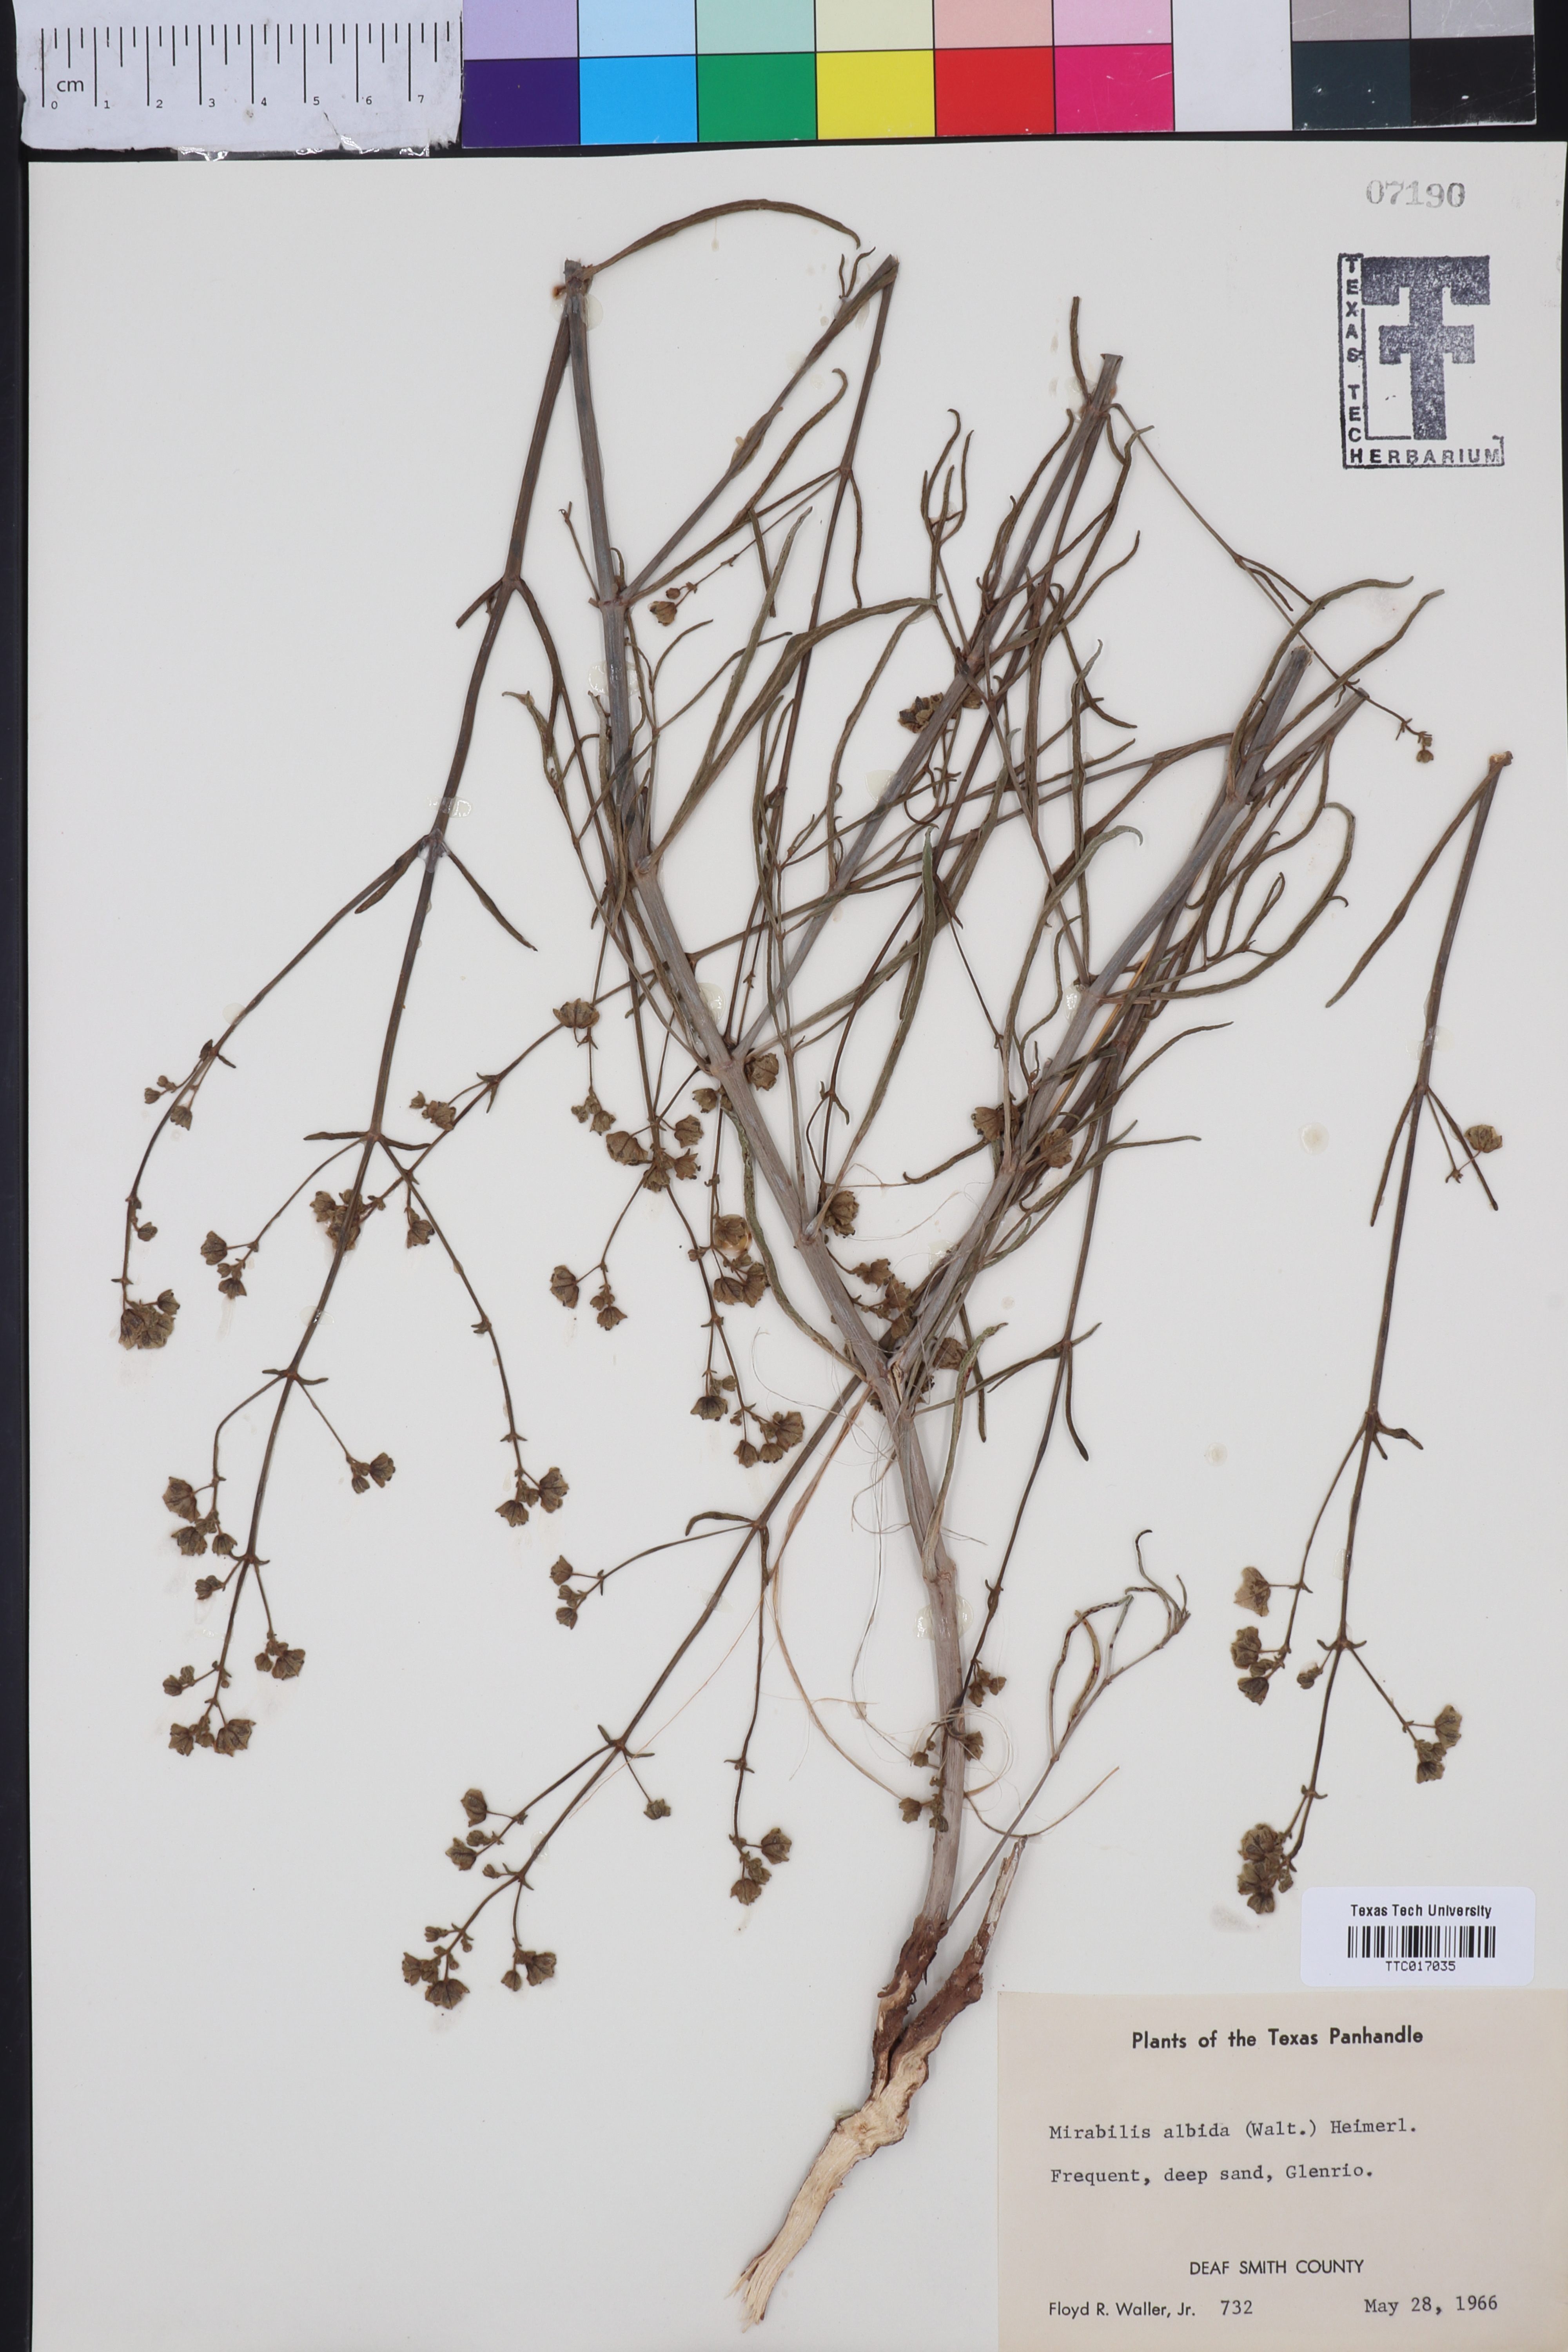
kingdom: Plantae
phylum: Tracheophyta
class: Magnoliopsida
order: Caryophyllales
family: Nyctaginaceae
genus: Mirabilis
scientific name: Mirabilis albida
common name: Hairy four-o'clock
